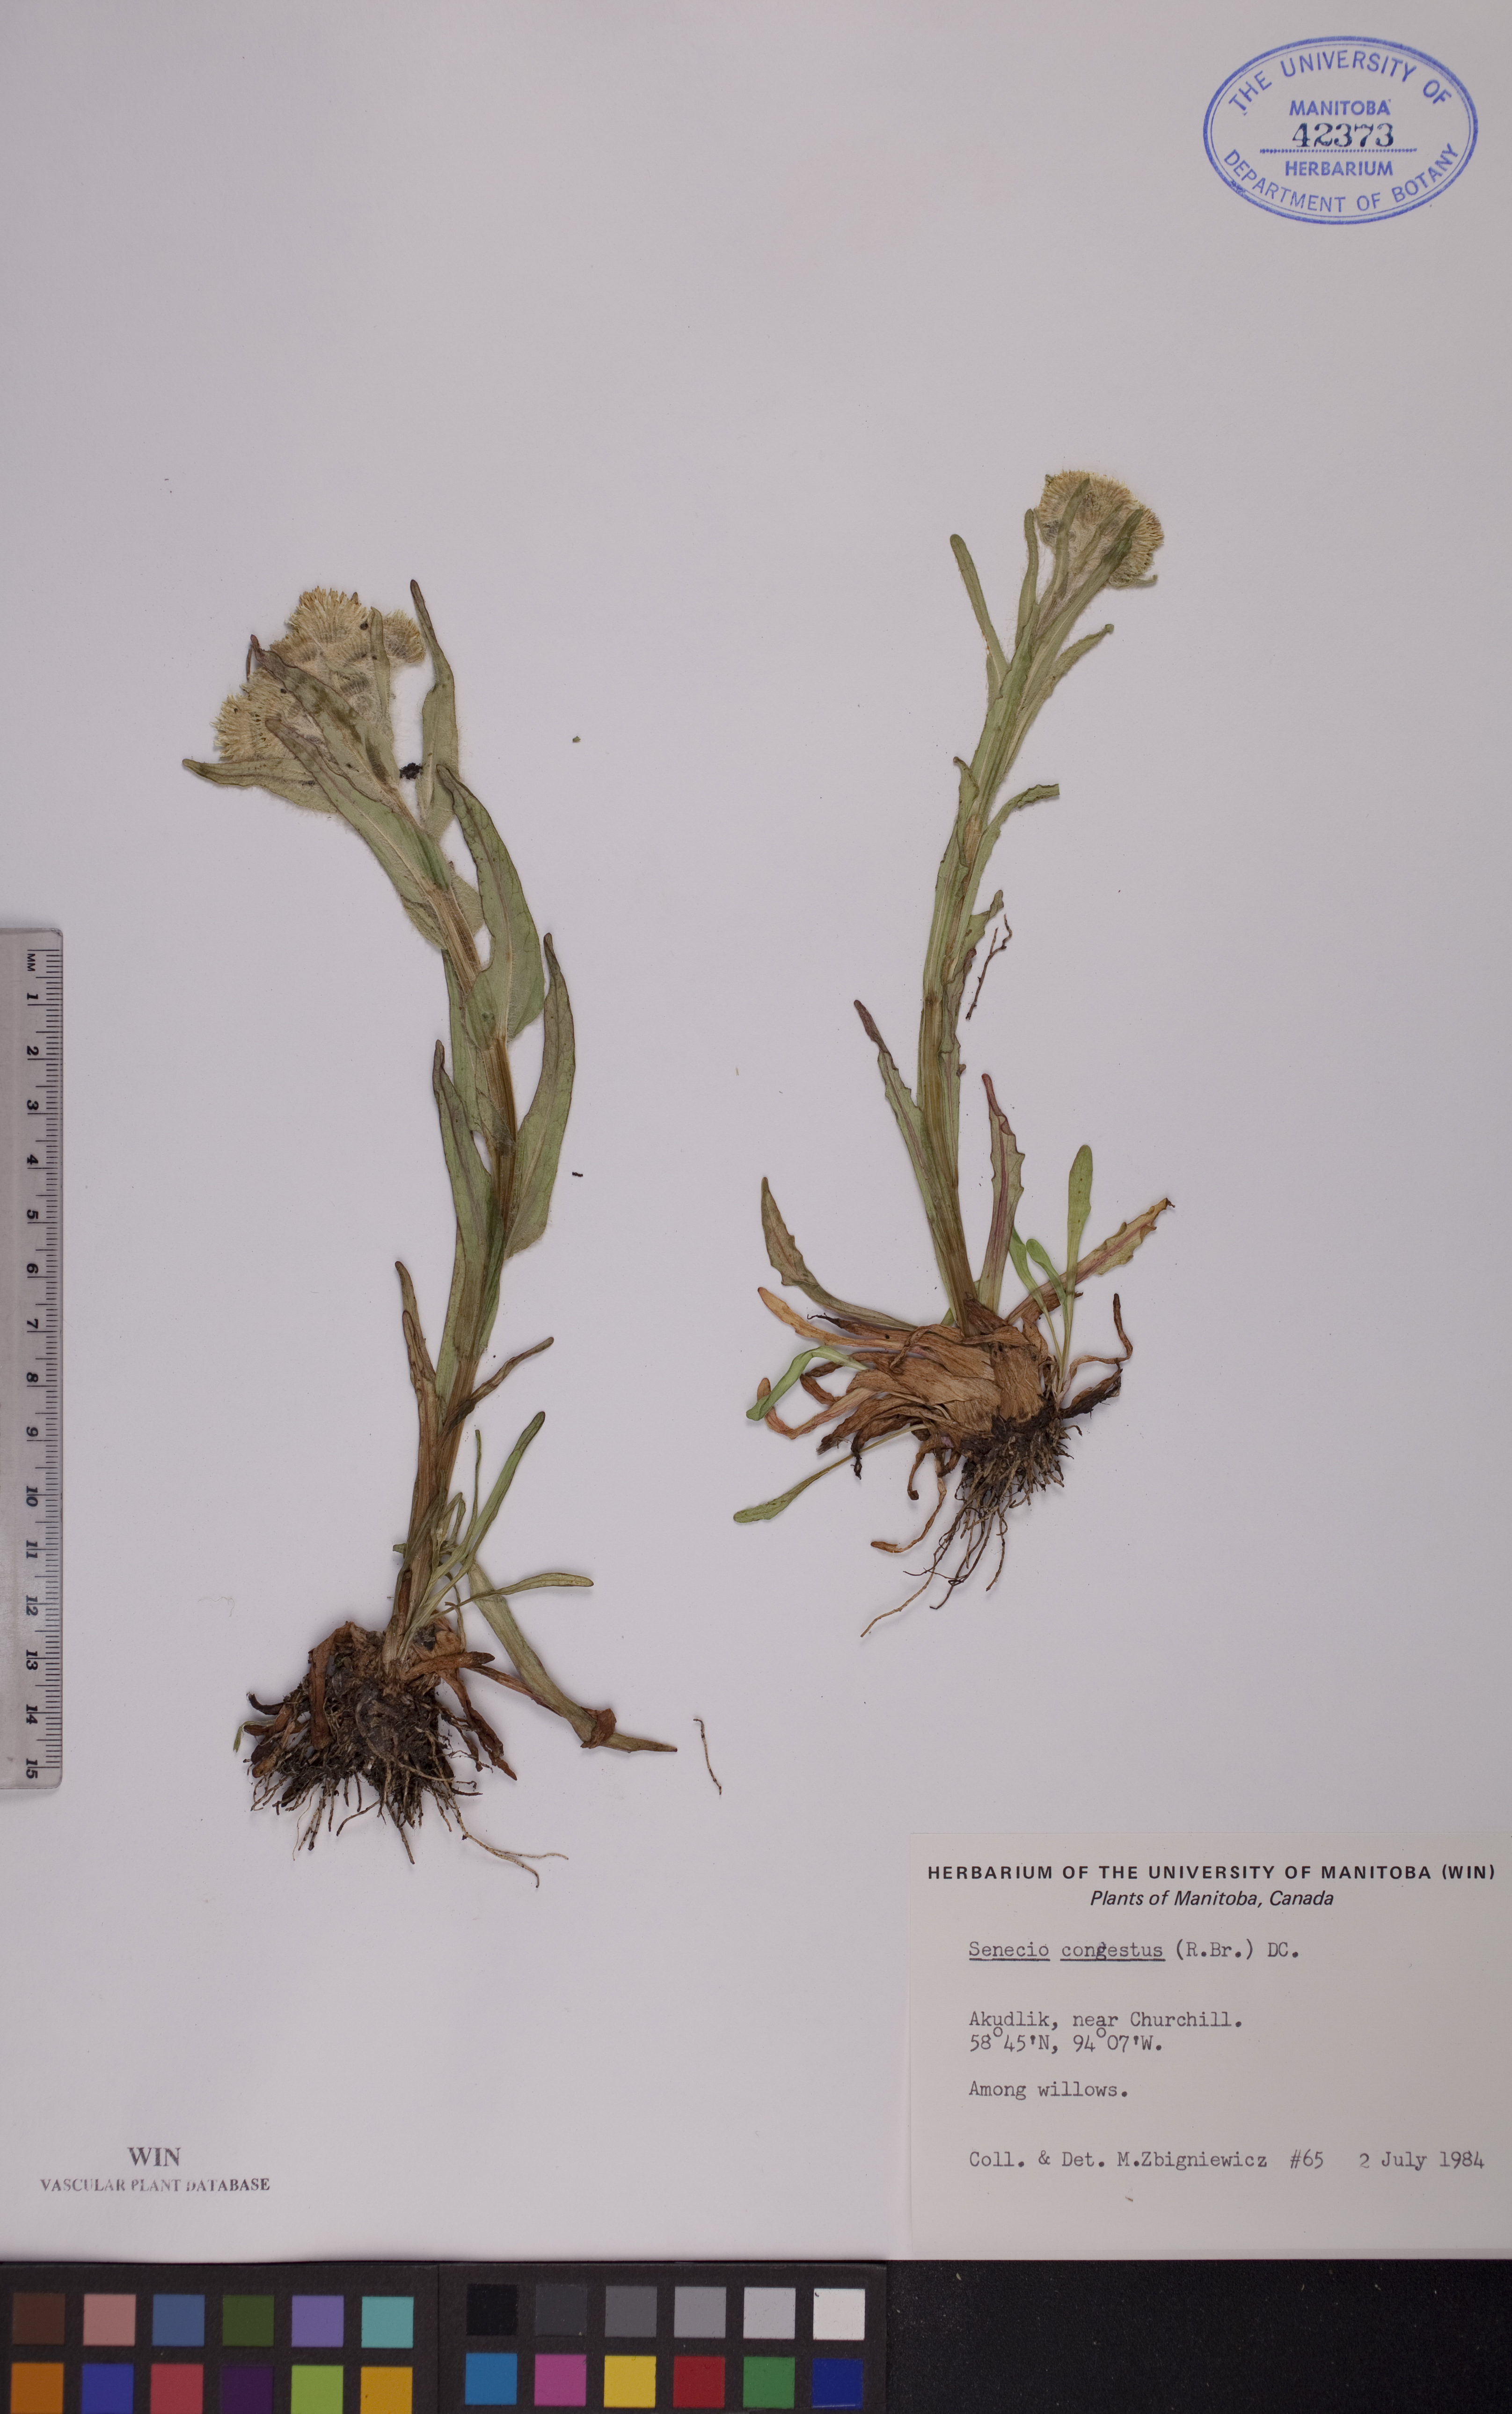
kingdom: Plantae
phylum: Tracheophyta
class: Magnoliopsida
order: Asterales
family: Asteraceae
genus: Tephroseris
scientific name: Tephroseris palustris
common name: Marsh fleawort
